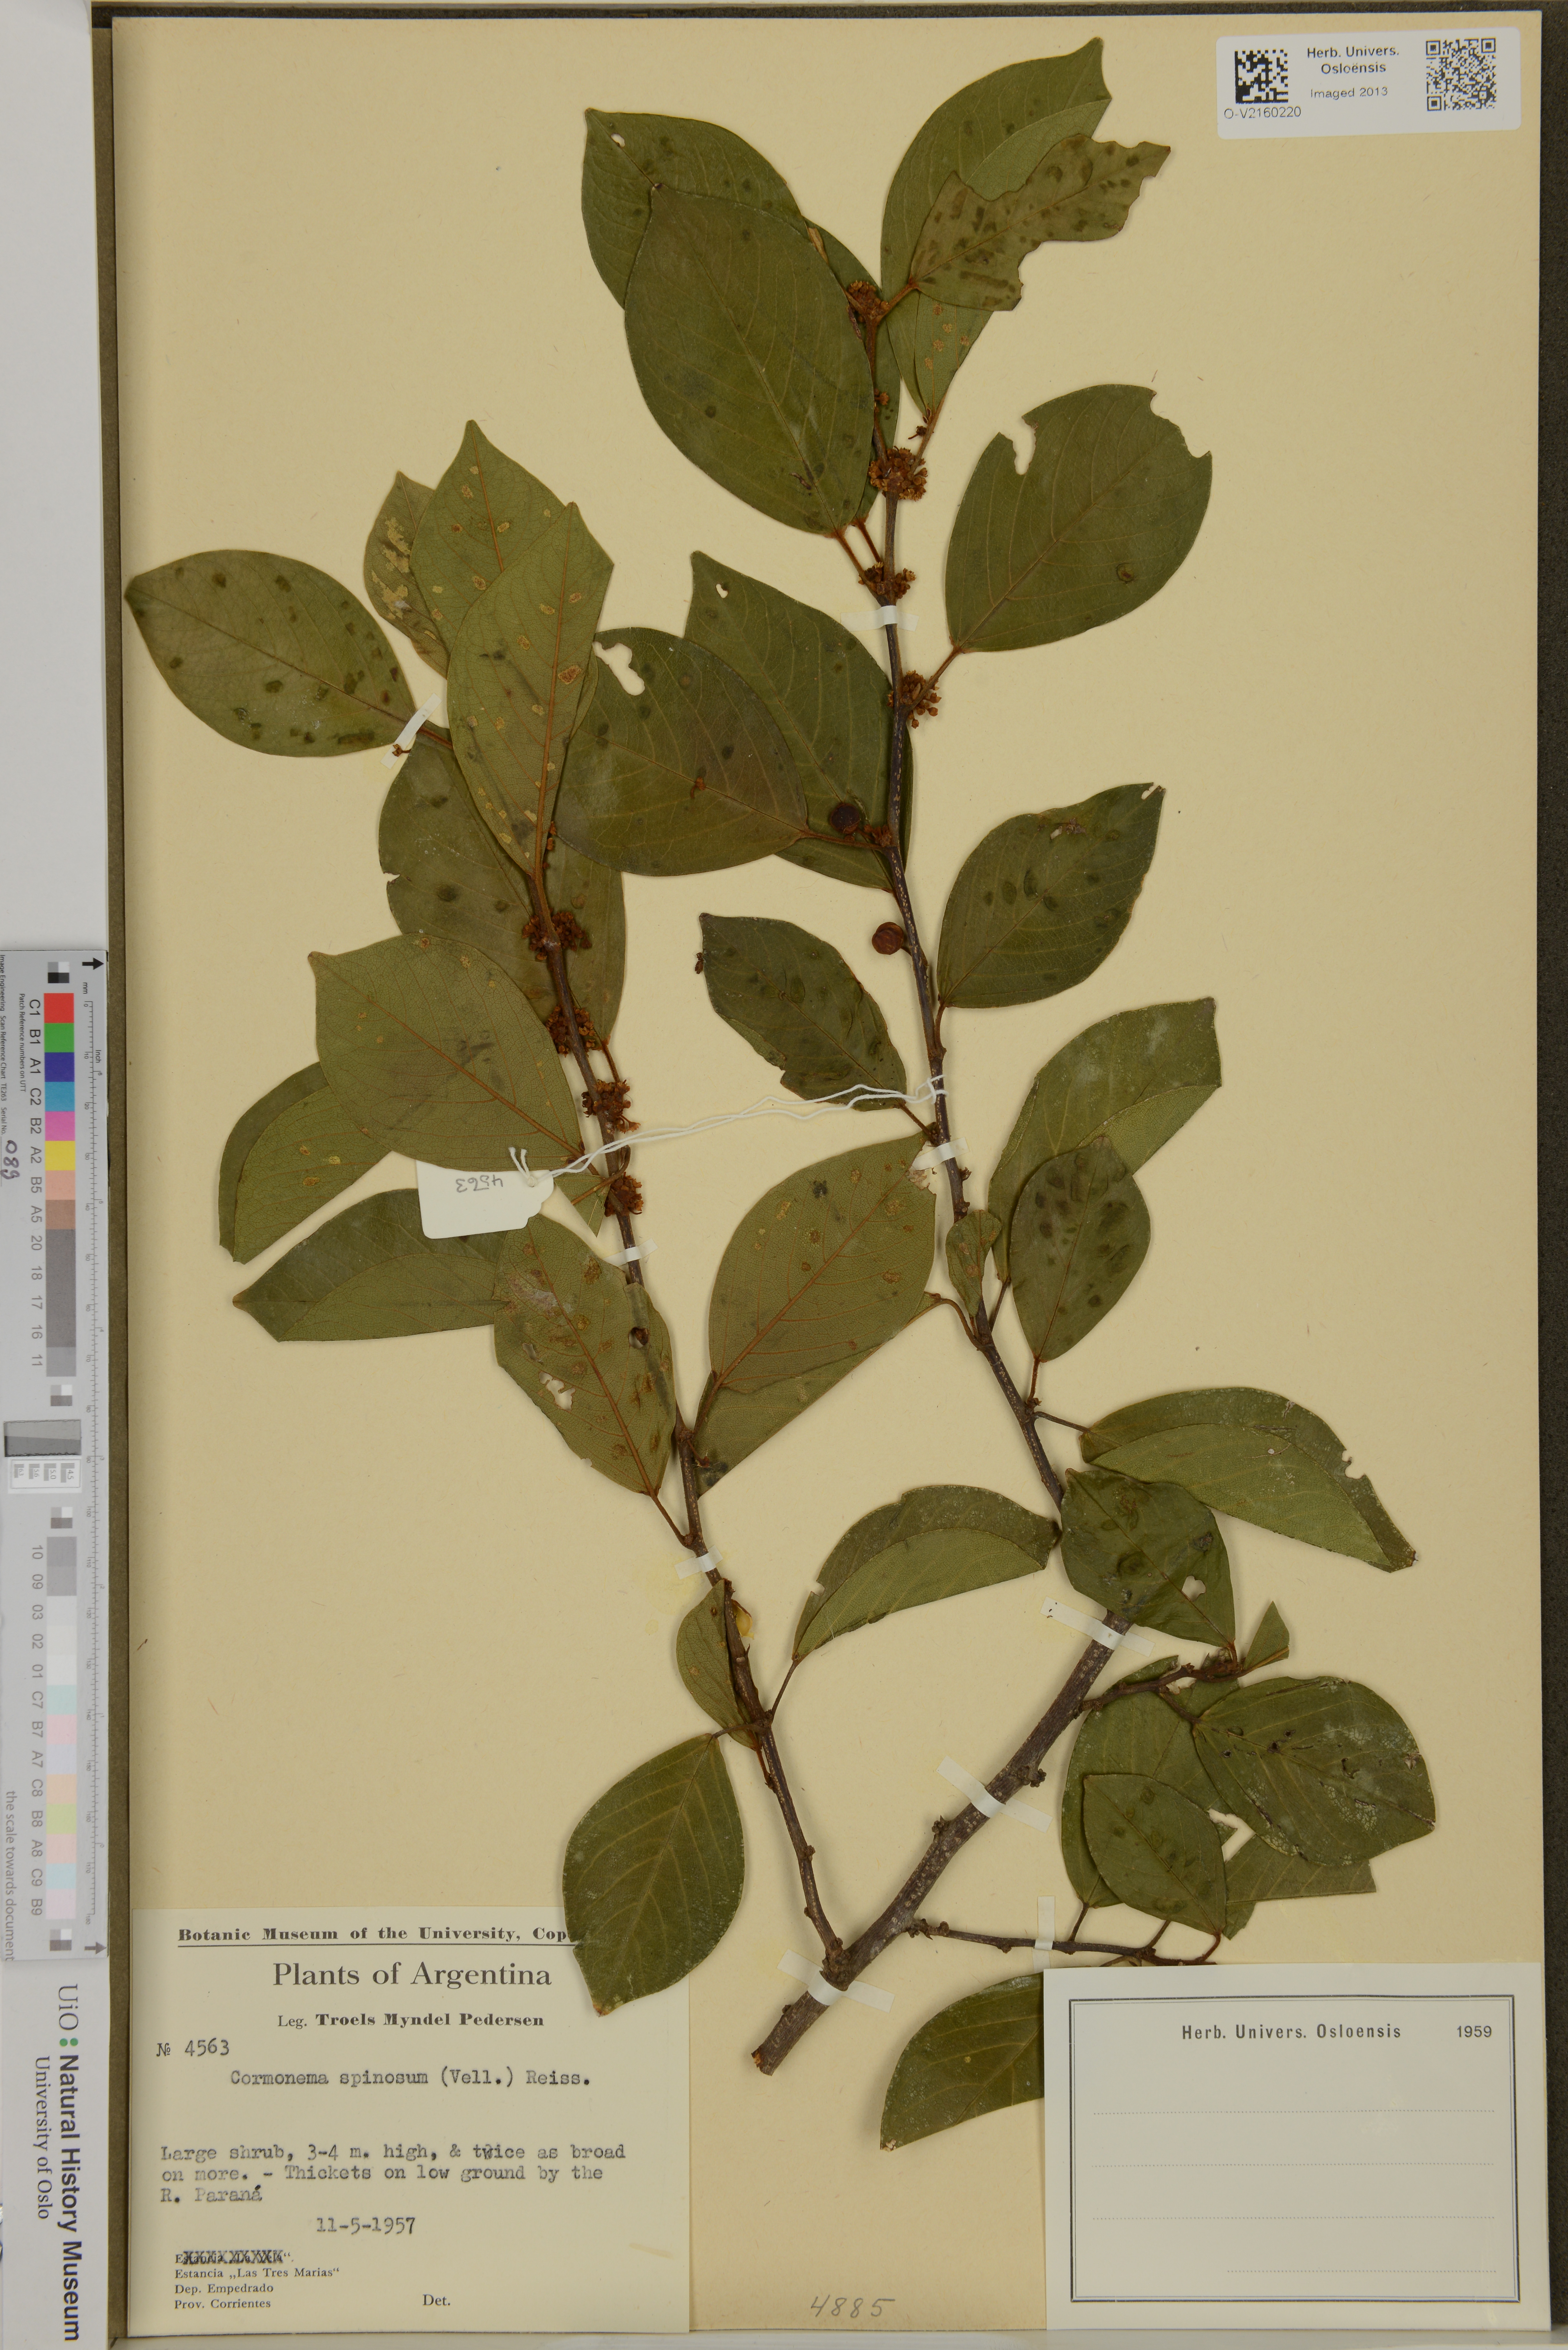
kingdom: Plantae
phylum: Tracheophyta
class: Magnoliopsida
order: Rosales
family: Rhamnaceae
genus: Colubrina
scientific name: Colubrina spinosa
